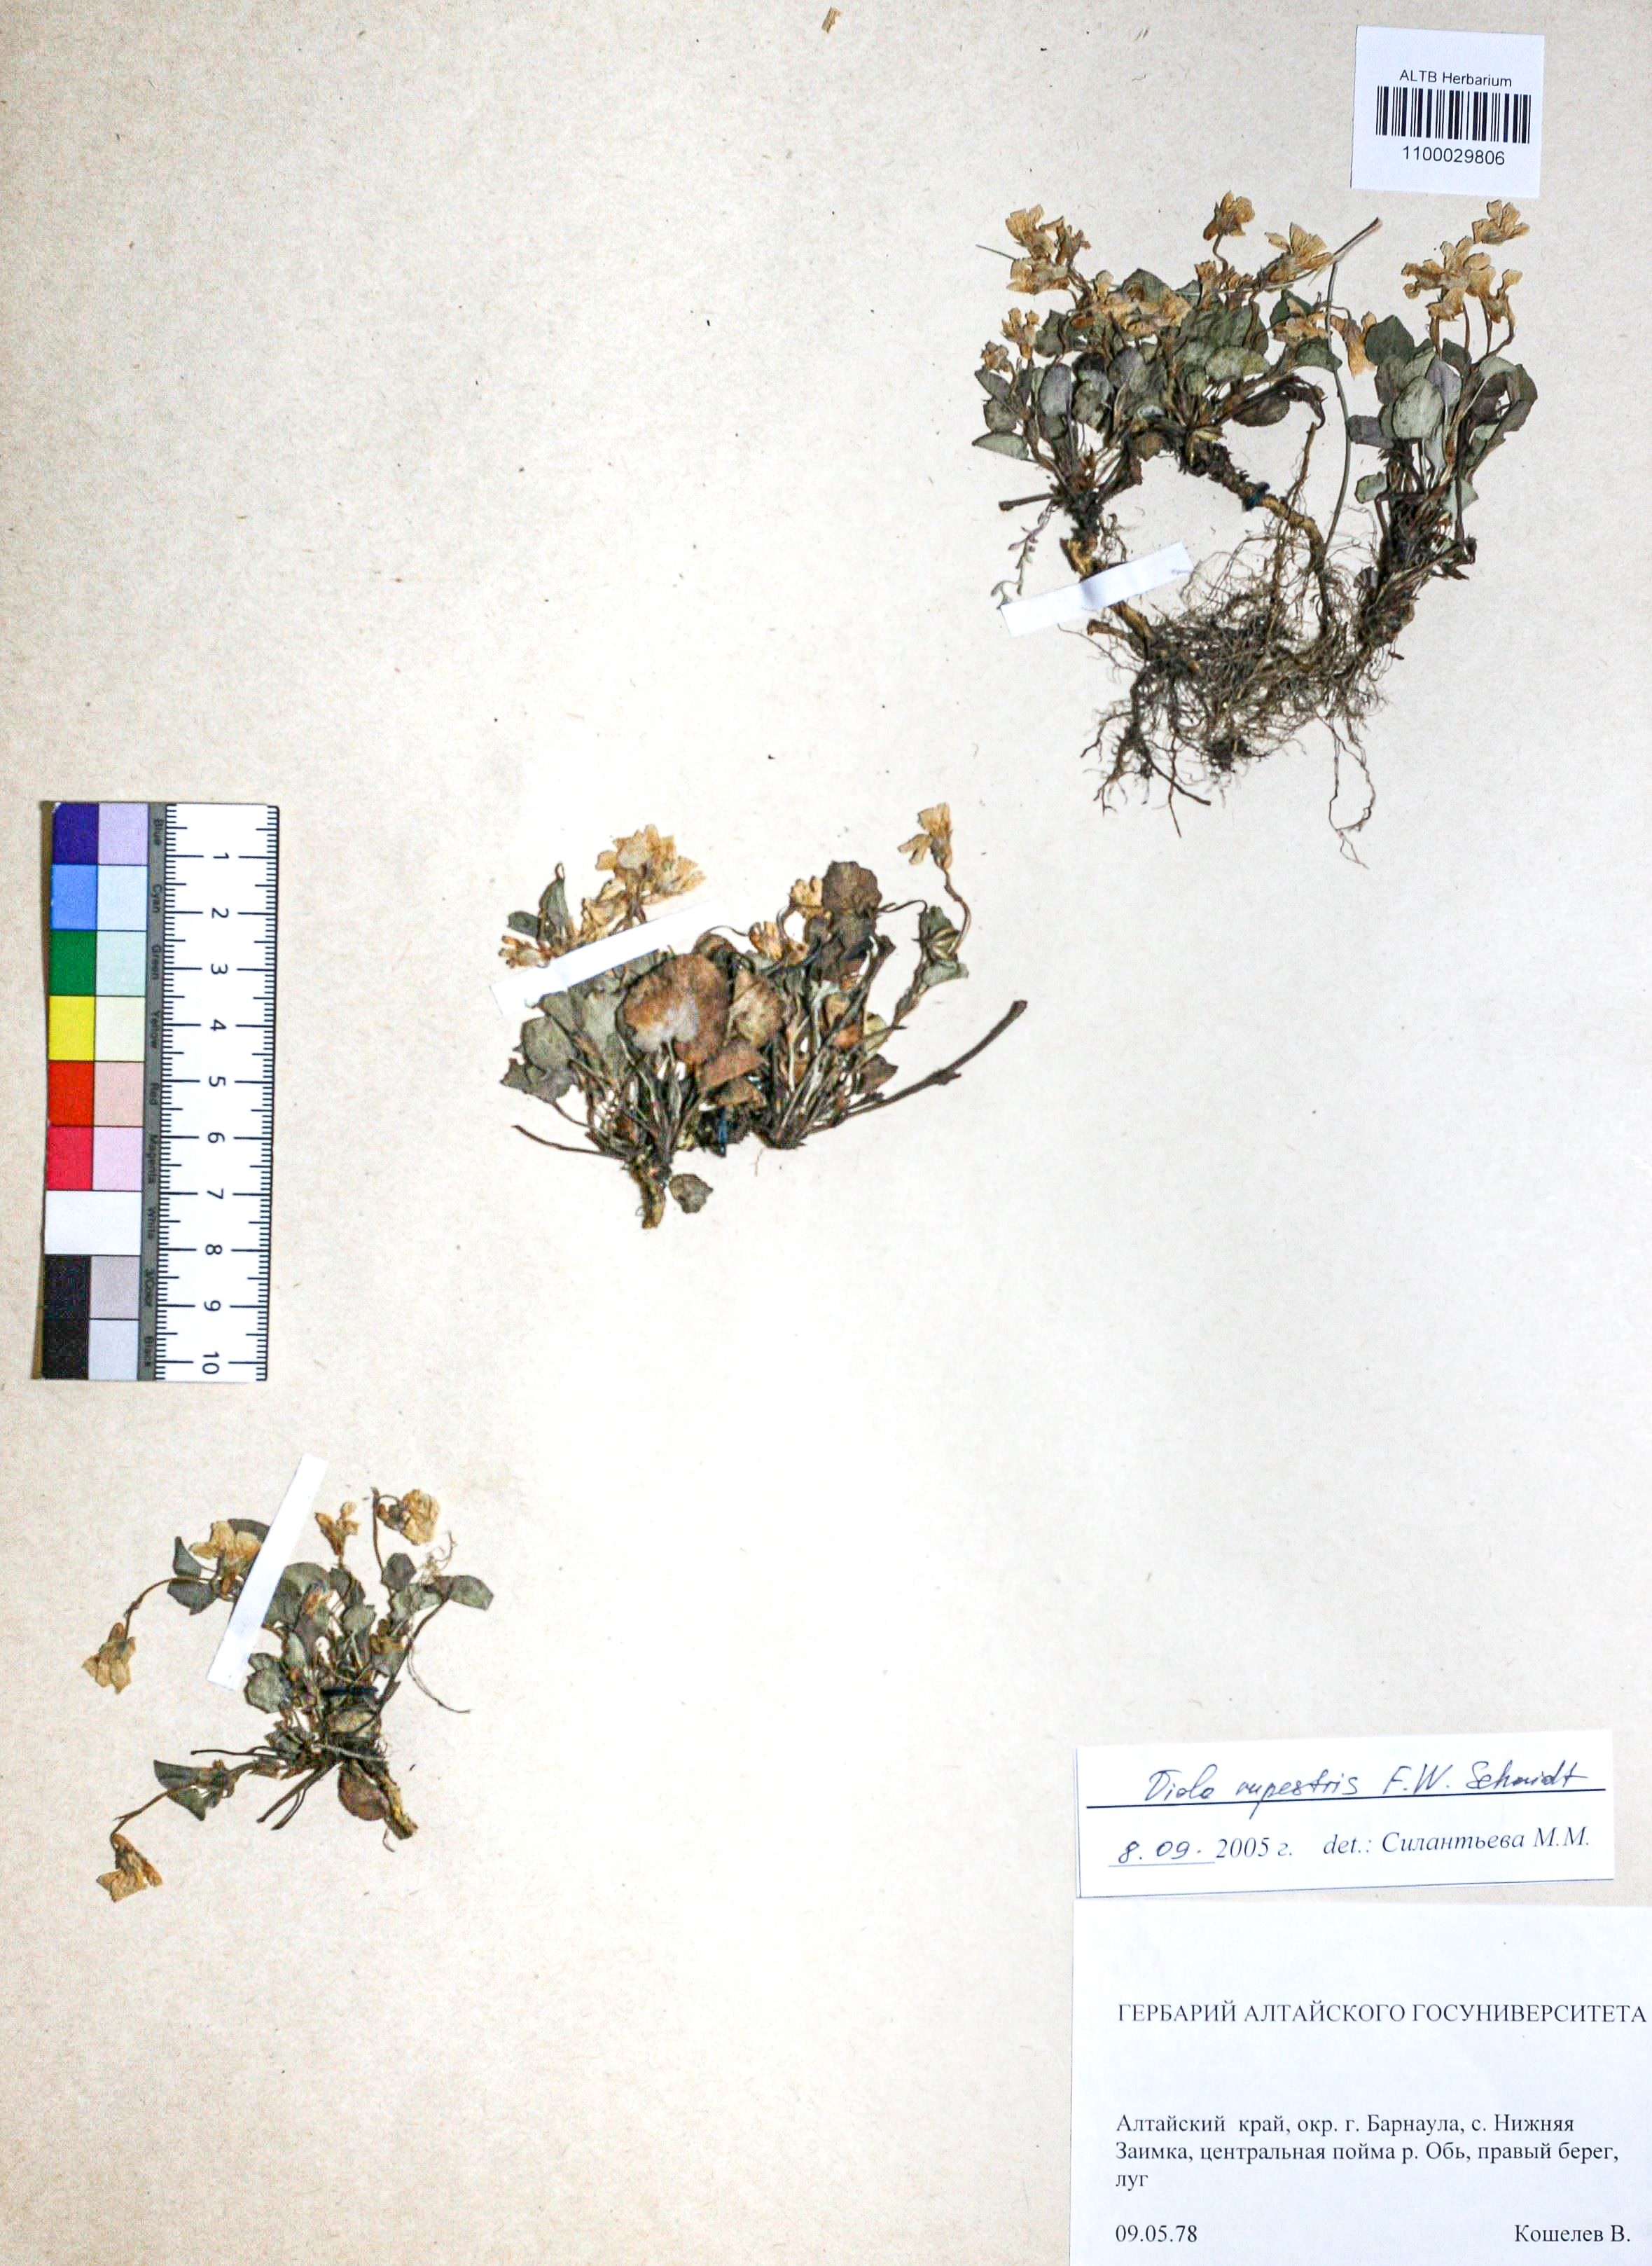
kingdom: Plantae
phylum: Tracheophyta
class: Magnoliopsida
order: Malpighiales
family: Violaceae
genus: Viola
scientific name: Viola rupestris
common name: Teesdale violet
